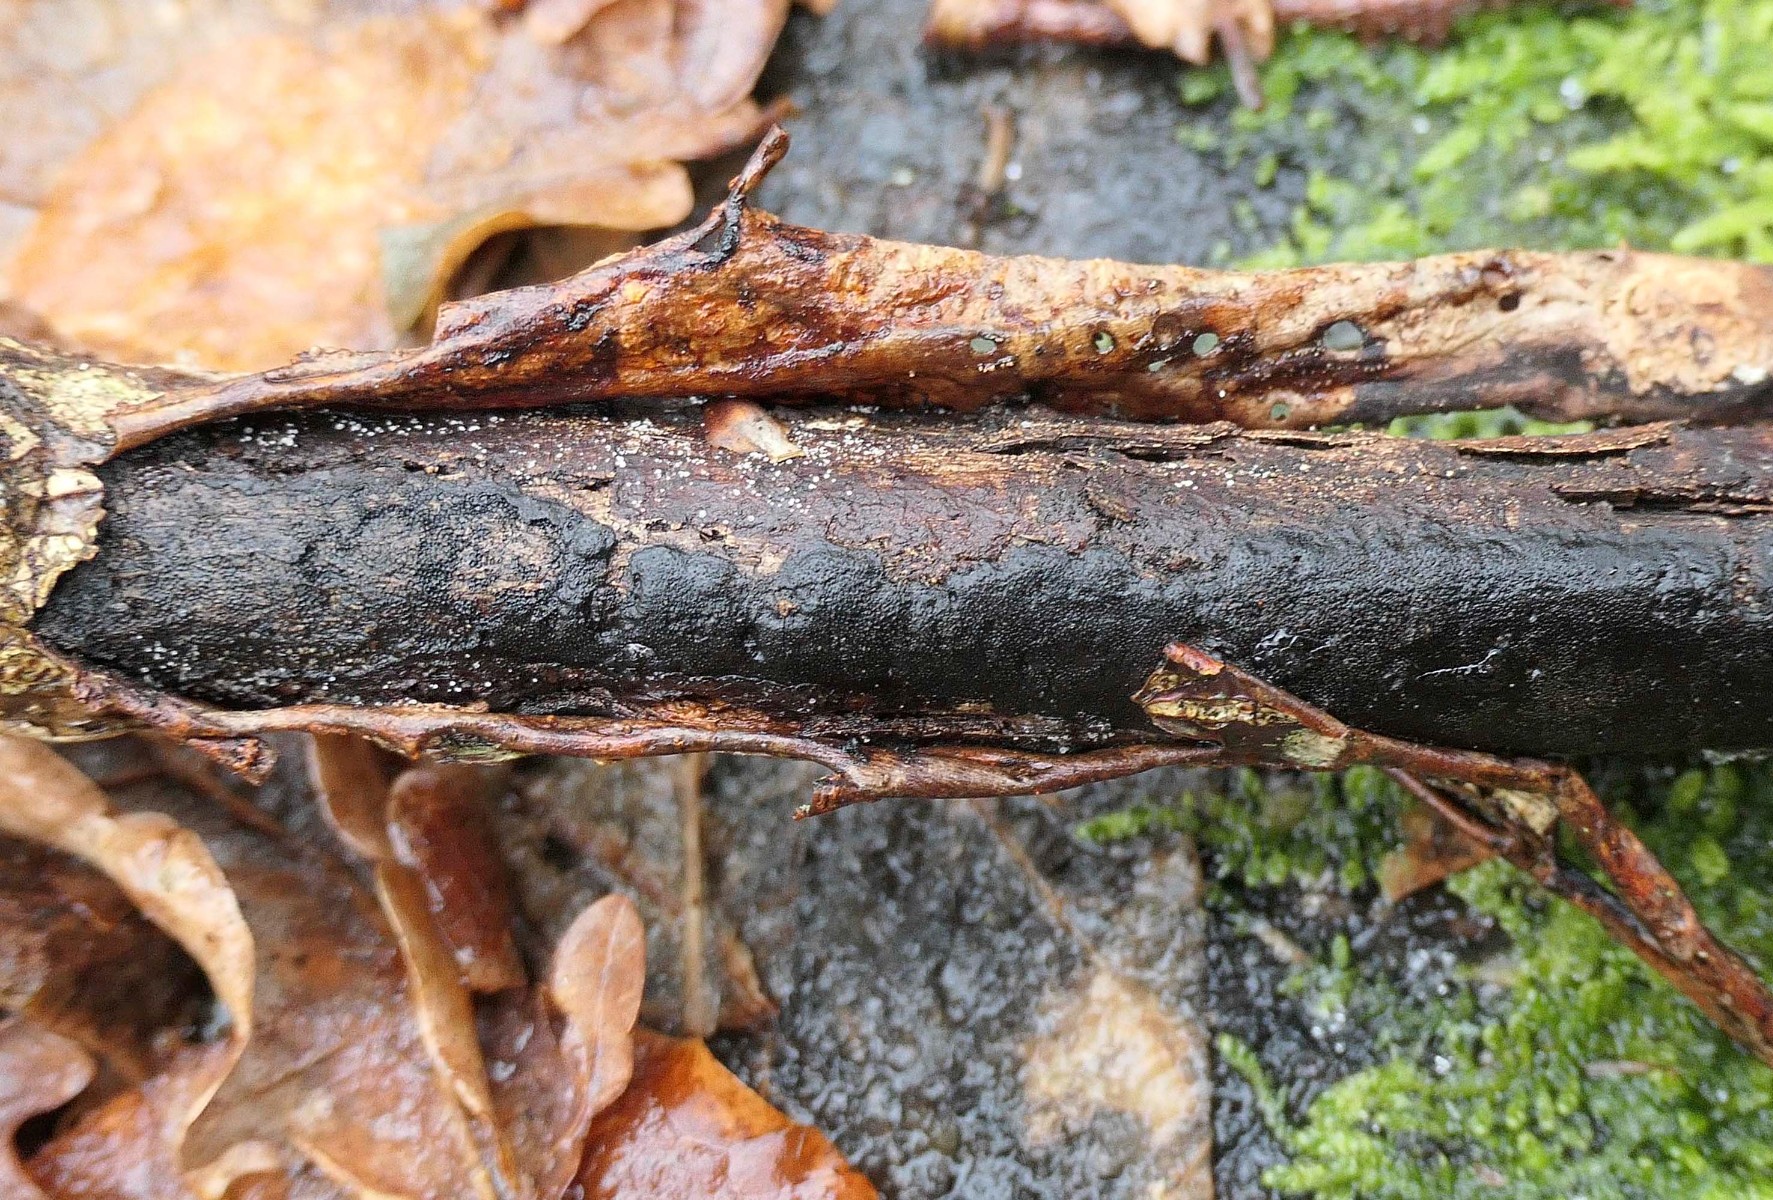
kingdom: Fungi
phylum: Ascomycota
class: Sordariomycetes
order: Xylariales
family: Diatrypaceae
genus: Diatrype
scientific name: Diatrype stigma
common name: udbredt kulskorpe
